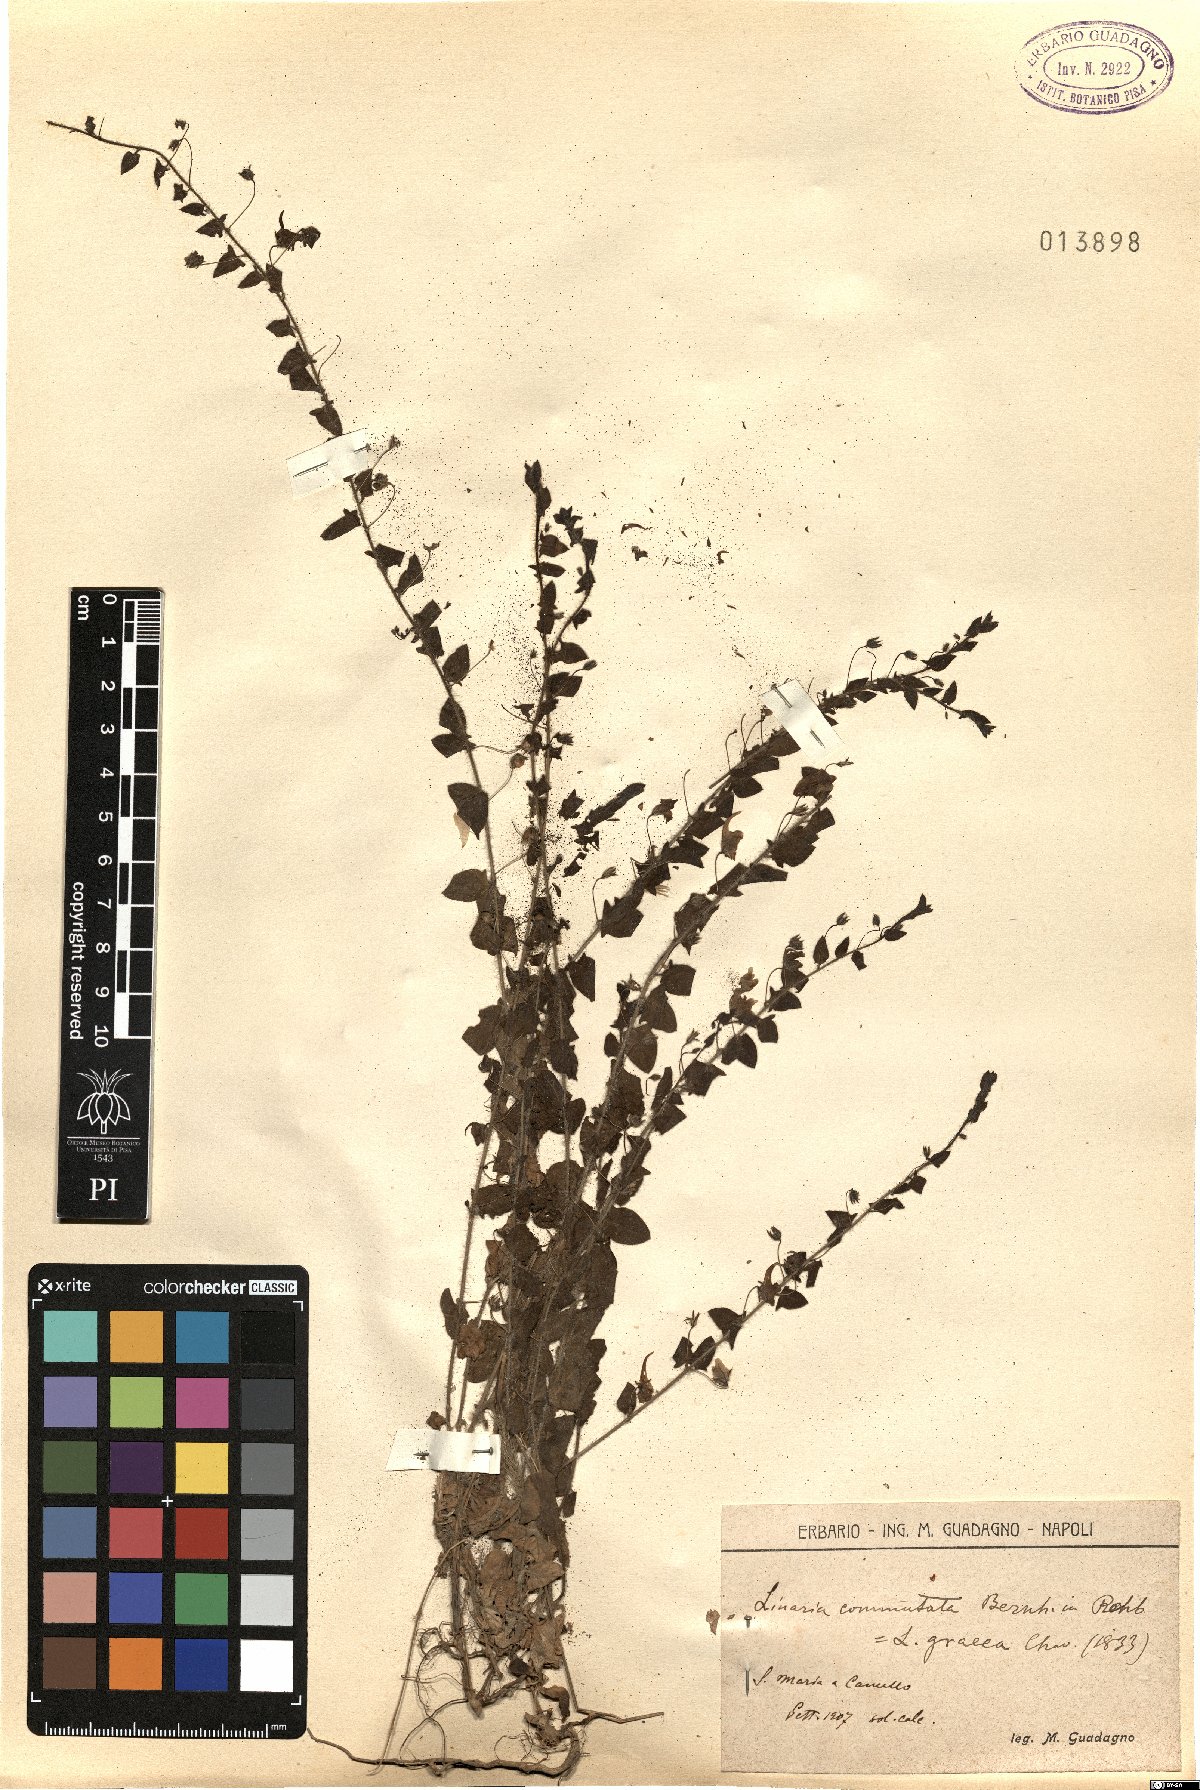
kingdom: Plantae
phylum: Tracheophyta
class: Magnoliopsida
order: Lamiales
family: Plantaginaceae
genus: Kickxia
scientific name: Kickxia elatine
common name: Sharp-leaved fluellen
